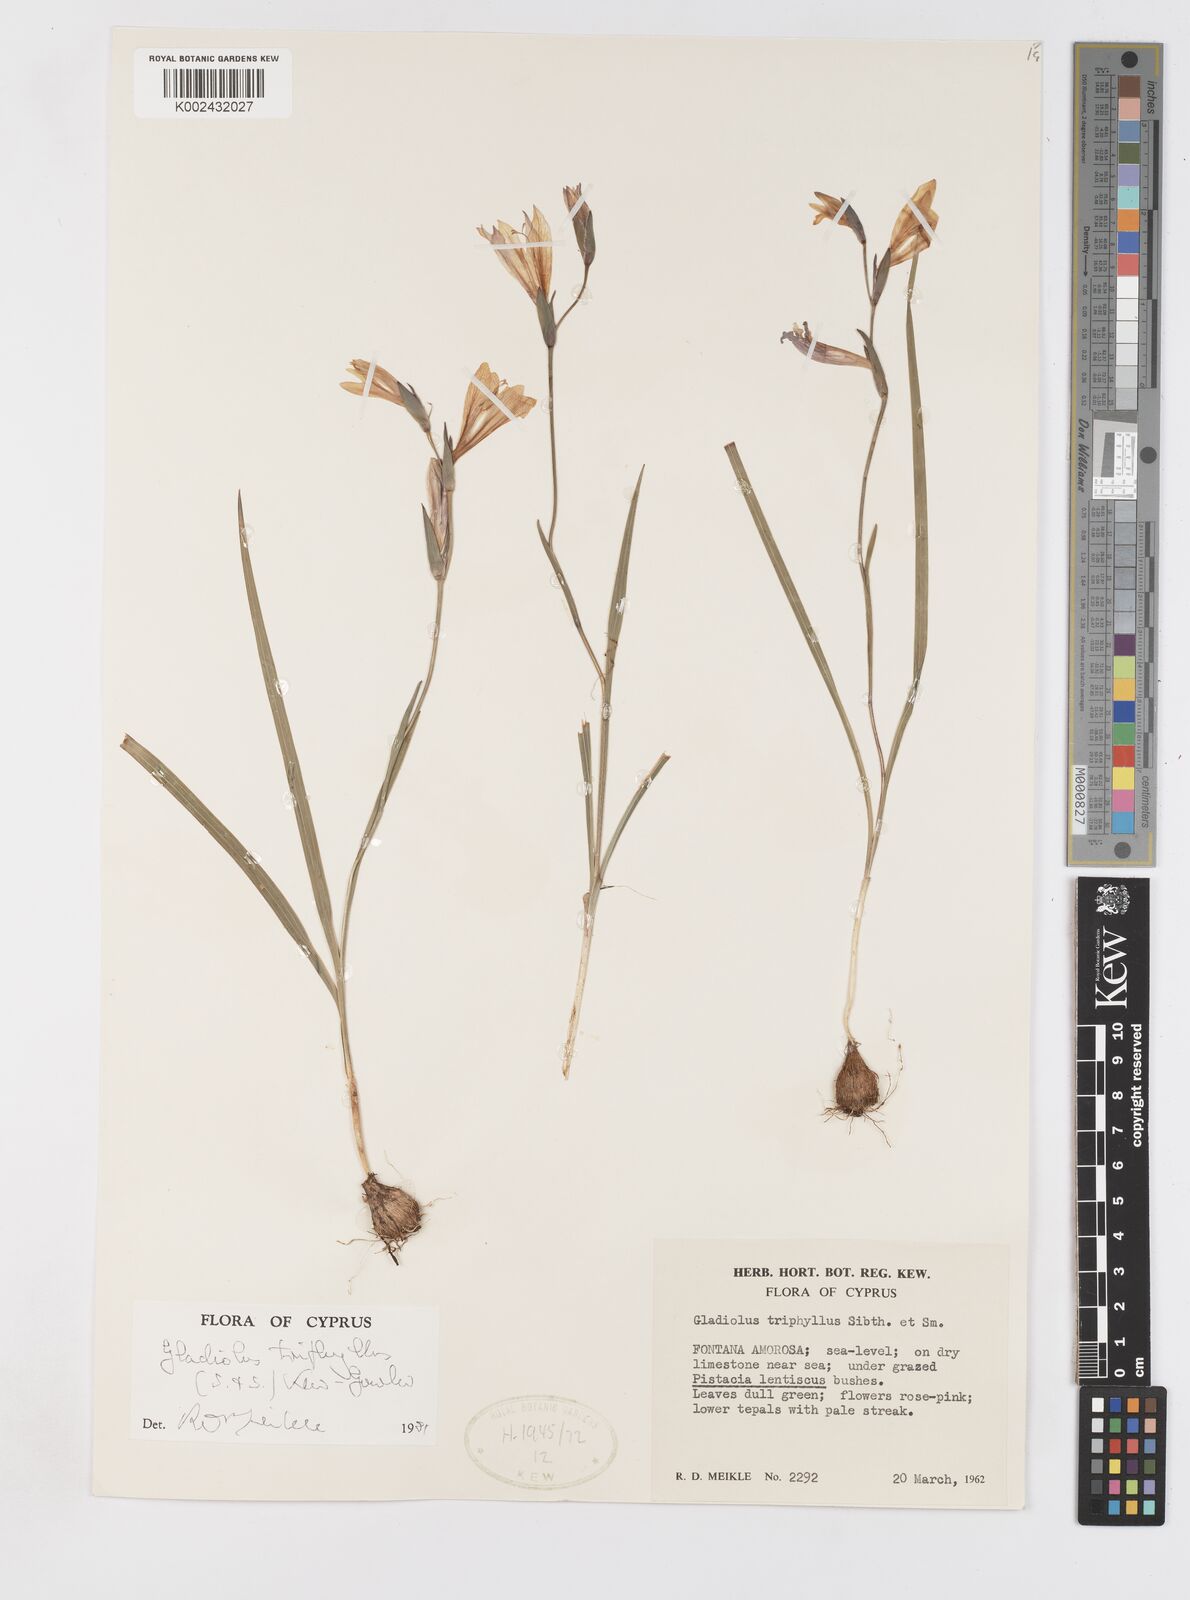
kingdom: Plantae
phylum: Tracheophyta
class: Liliopsida
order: Asparagales
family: Iridaceae
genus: Gladiolus
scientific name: Gladiolus triphyllus
